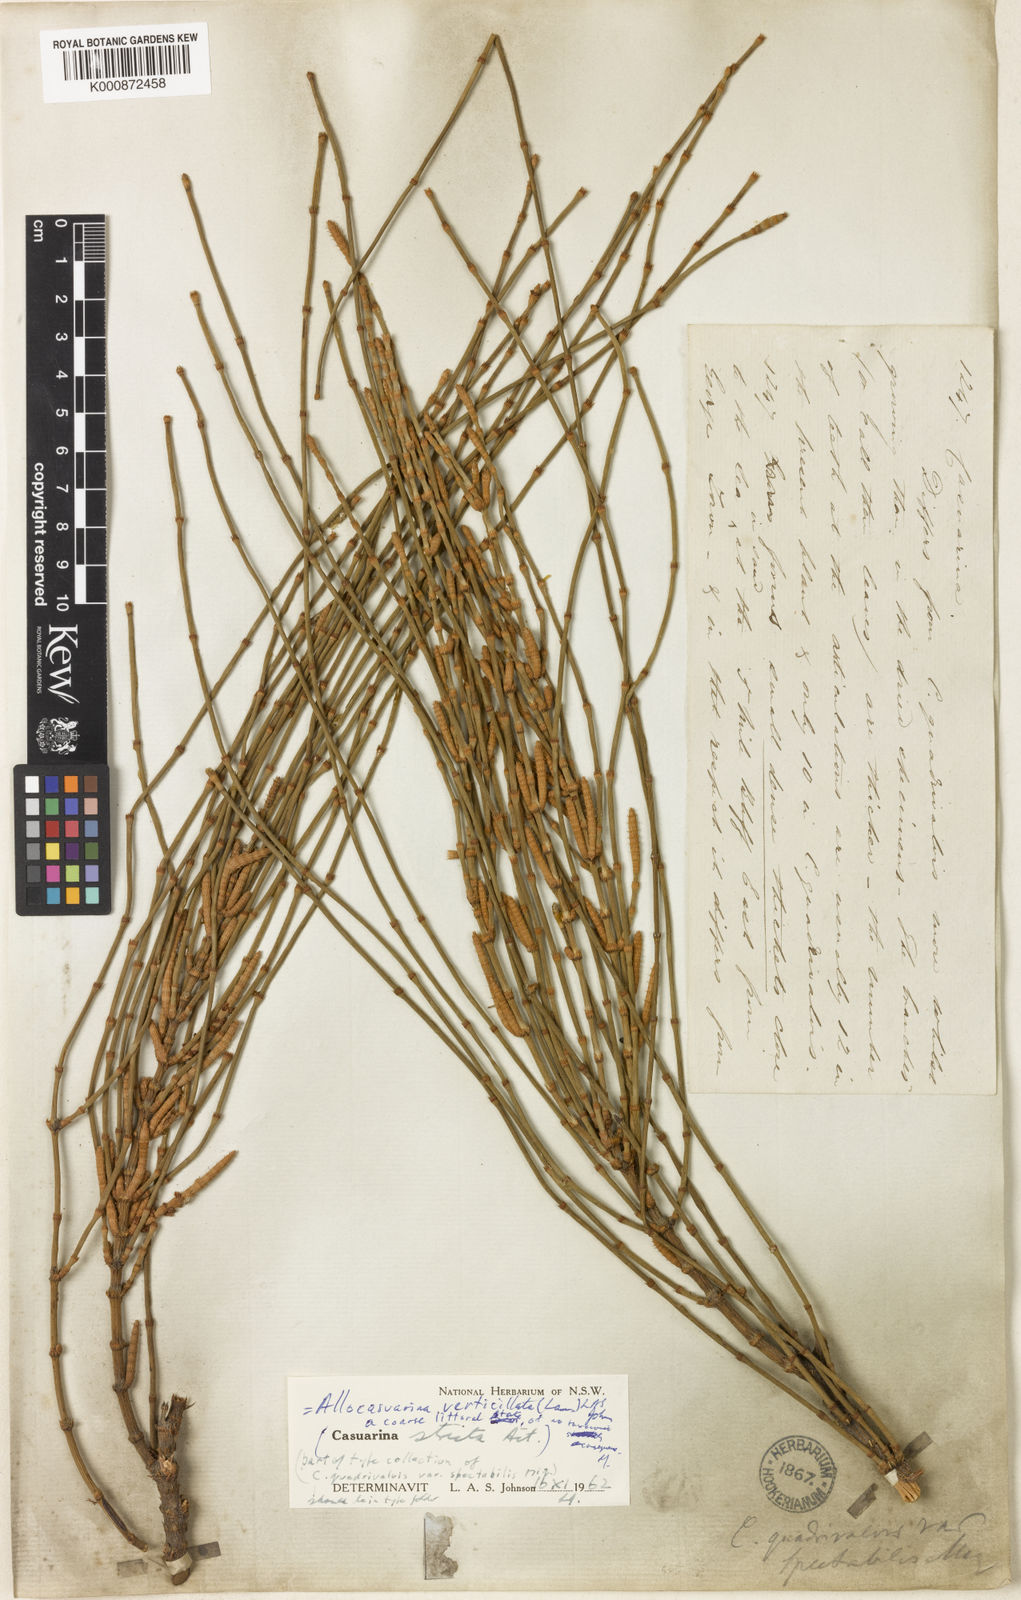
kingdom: Plantae
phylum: Tracheophyta
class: Magnoliopsida
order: Fagales
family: Casuarinaceae
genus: Allocasuarina
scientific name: Allocasuarina verticillata
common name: Drooping she-oak
